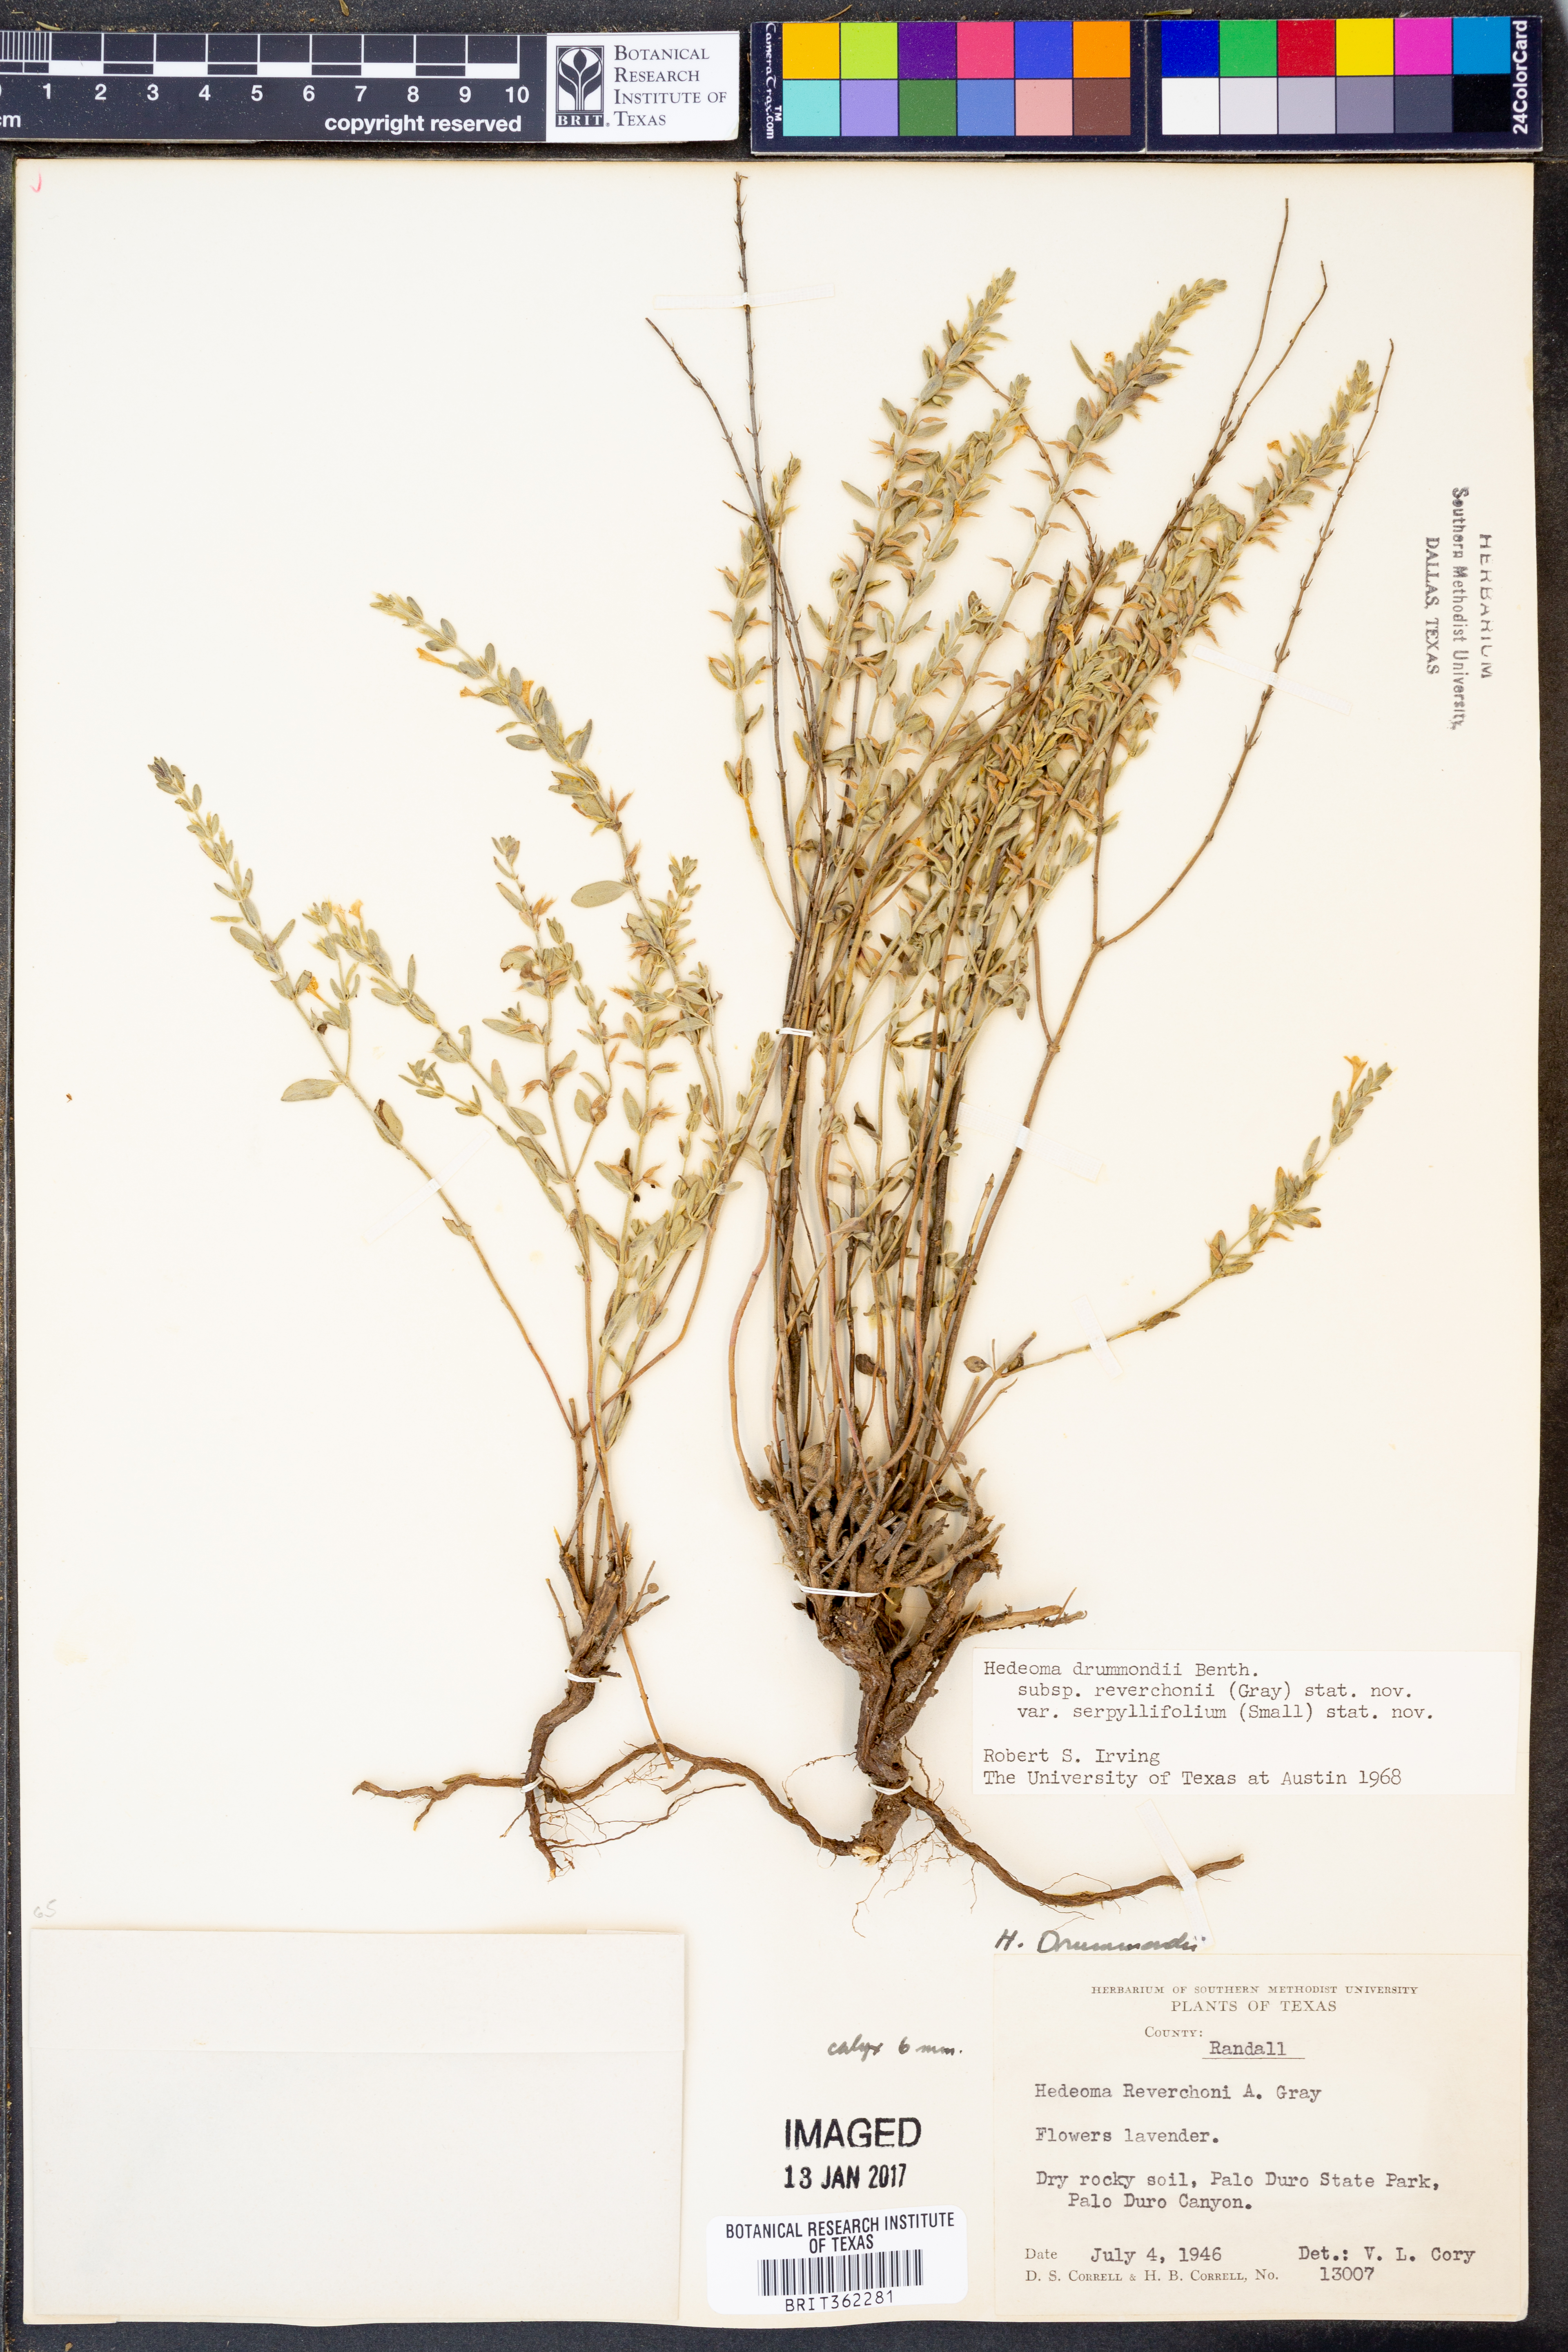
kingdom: Plantae
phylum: Tracheophyta
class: Magnoliopsida
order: Lamiales
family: Lamiaceae
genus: Hedeoma
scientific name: Hedeoma reverchonii
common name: Reverchon's false penny-royal
